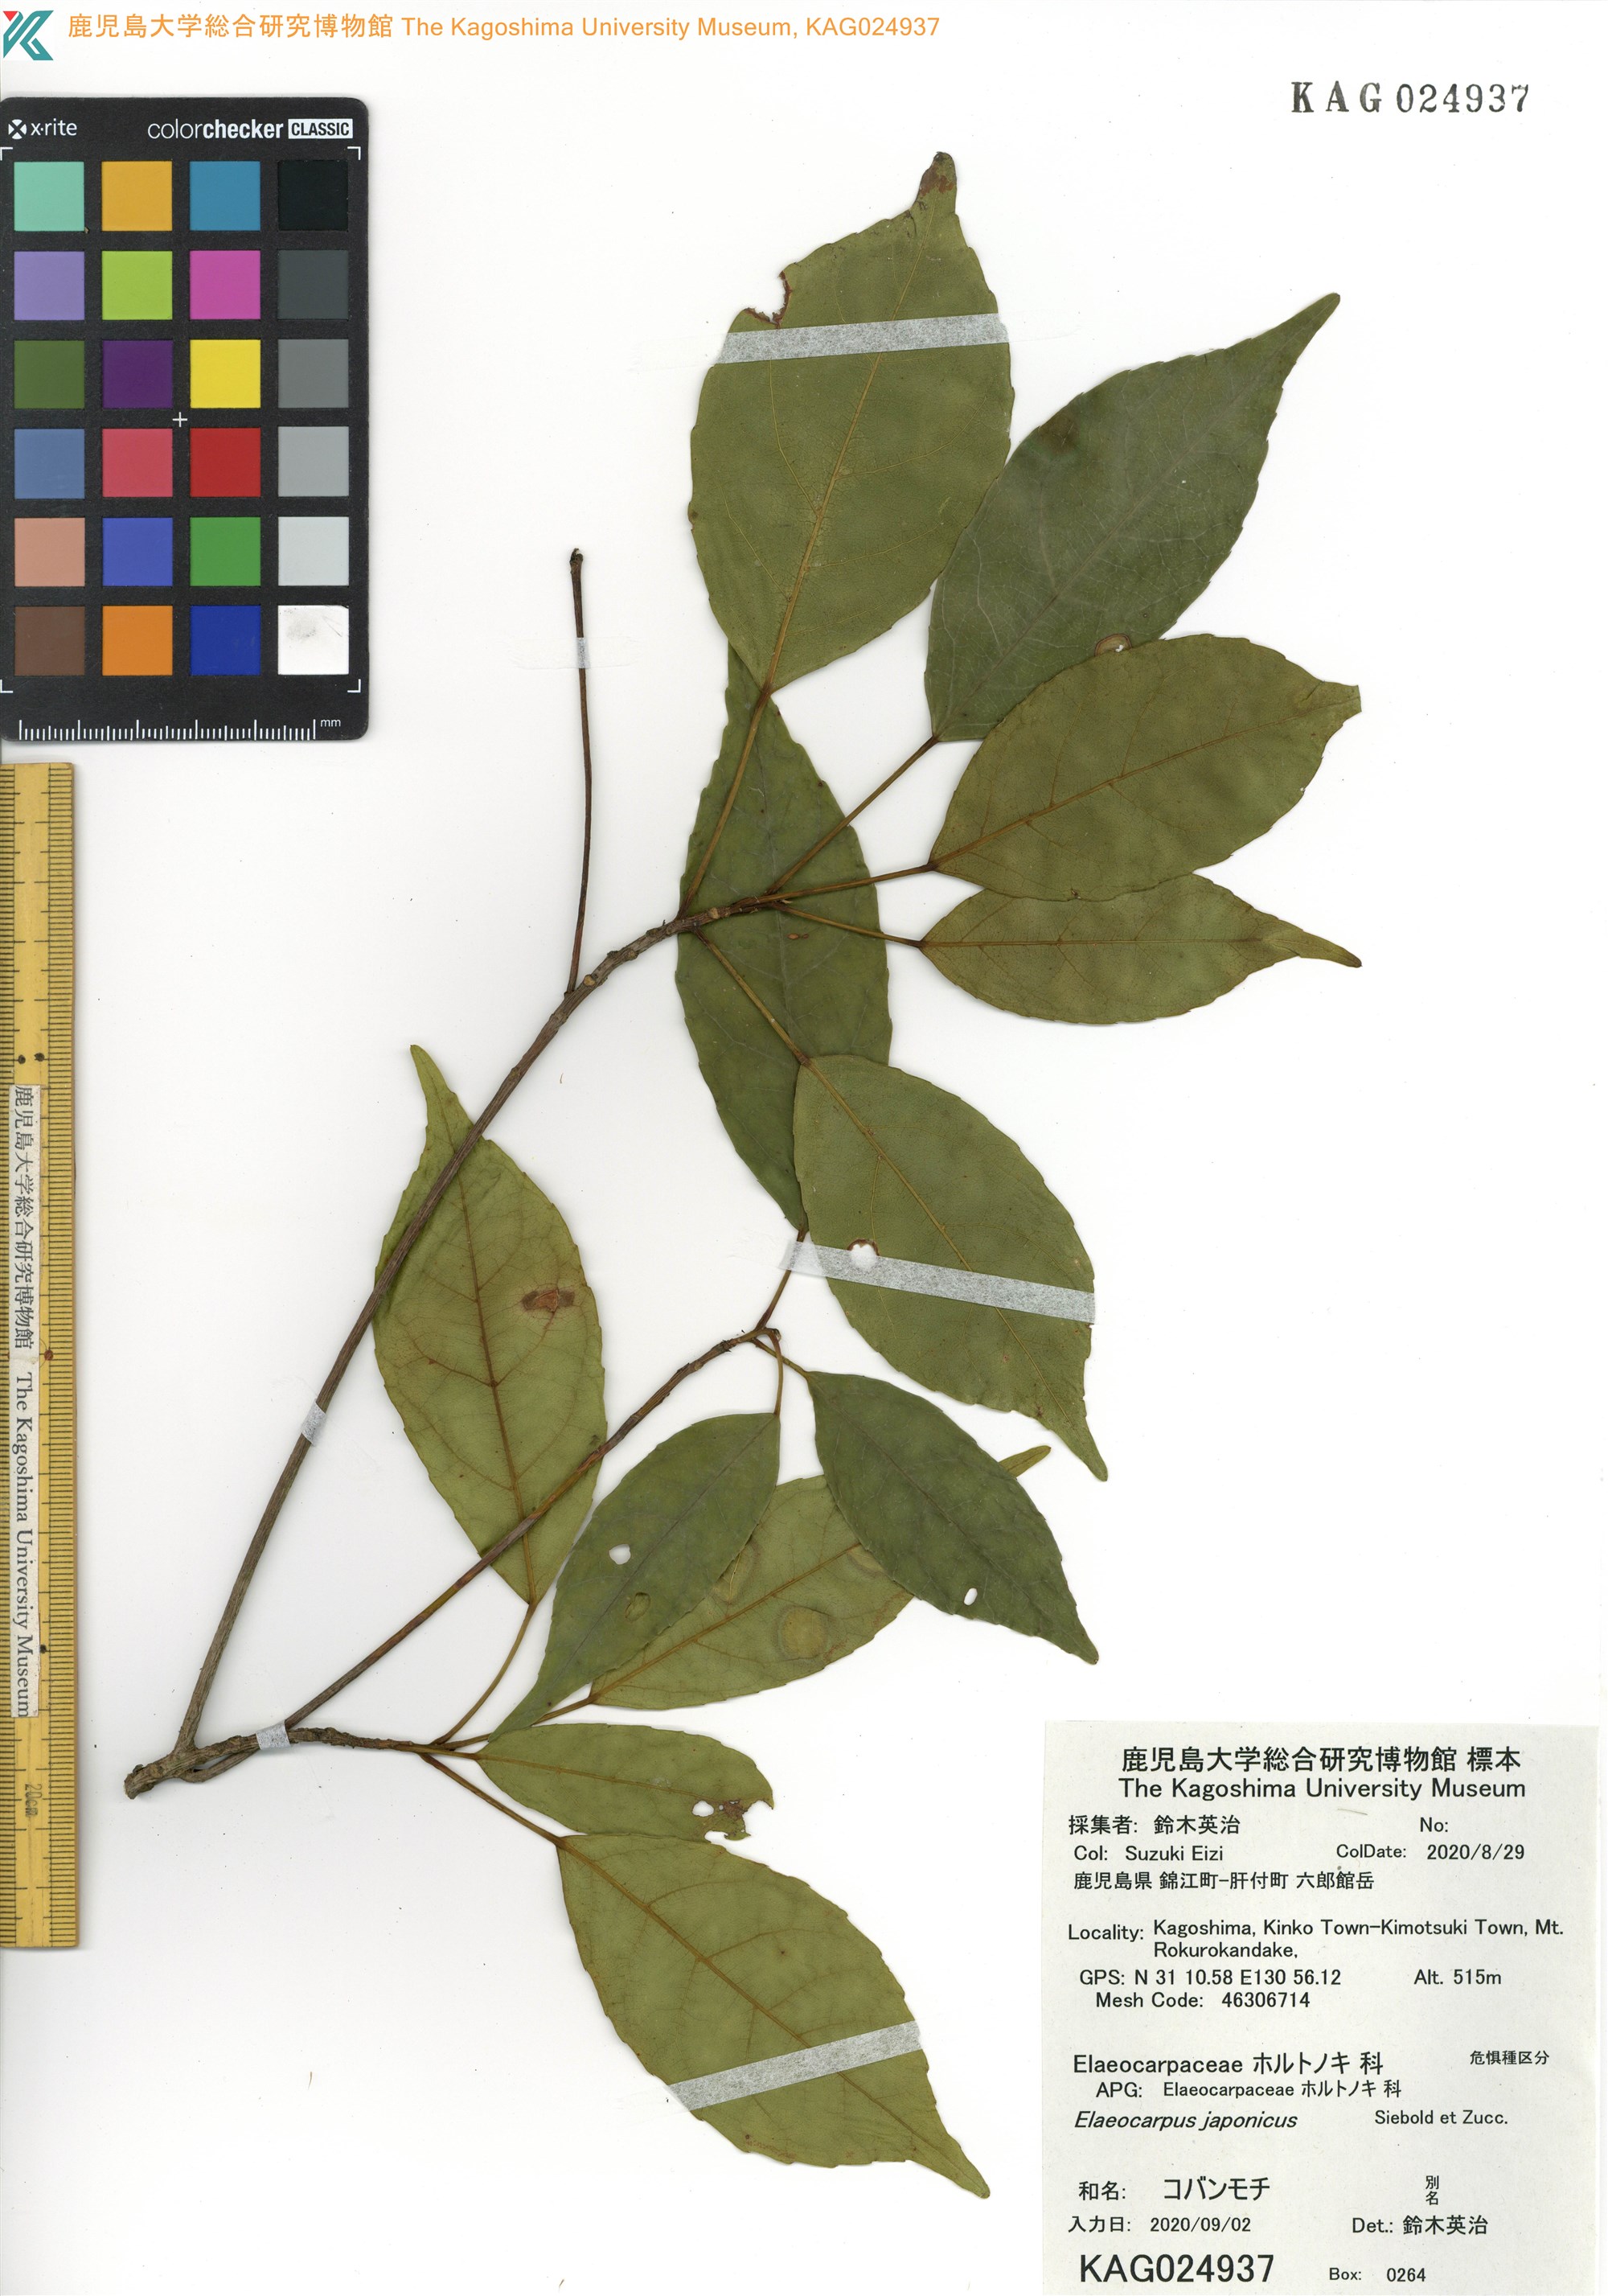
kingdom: Plantae
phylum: Tracheophyta
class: Magnoliopsida
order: Oxalidales
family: Elaeocarpaceae
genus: Elaeocarpus
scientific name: Elaeocarpus japonicus
